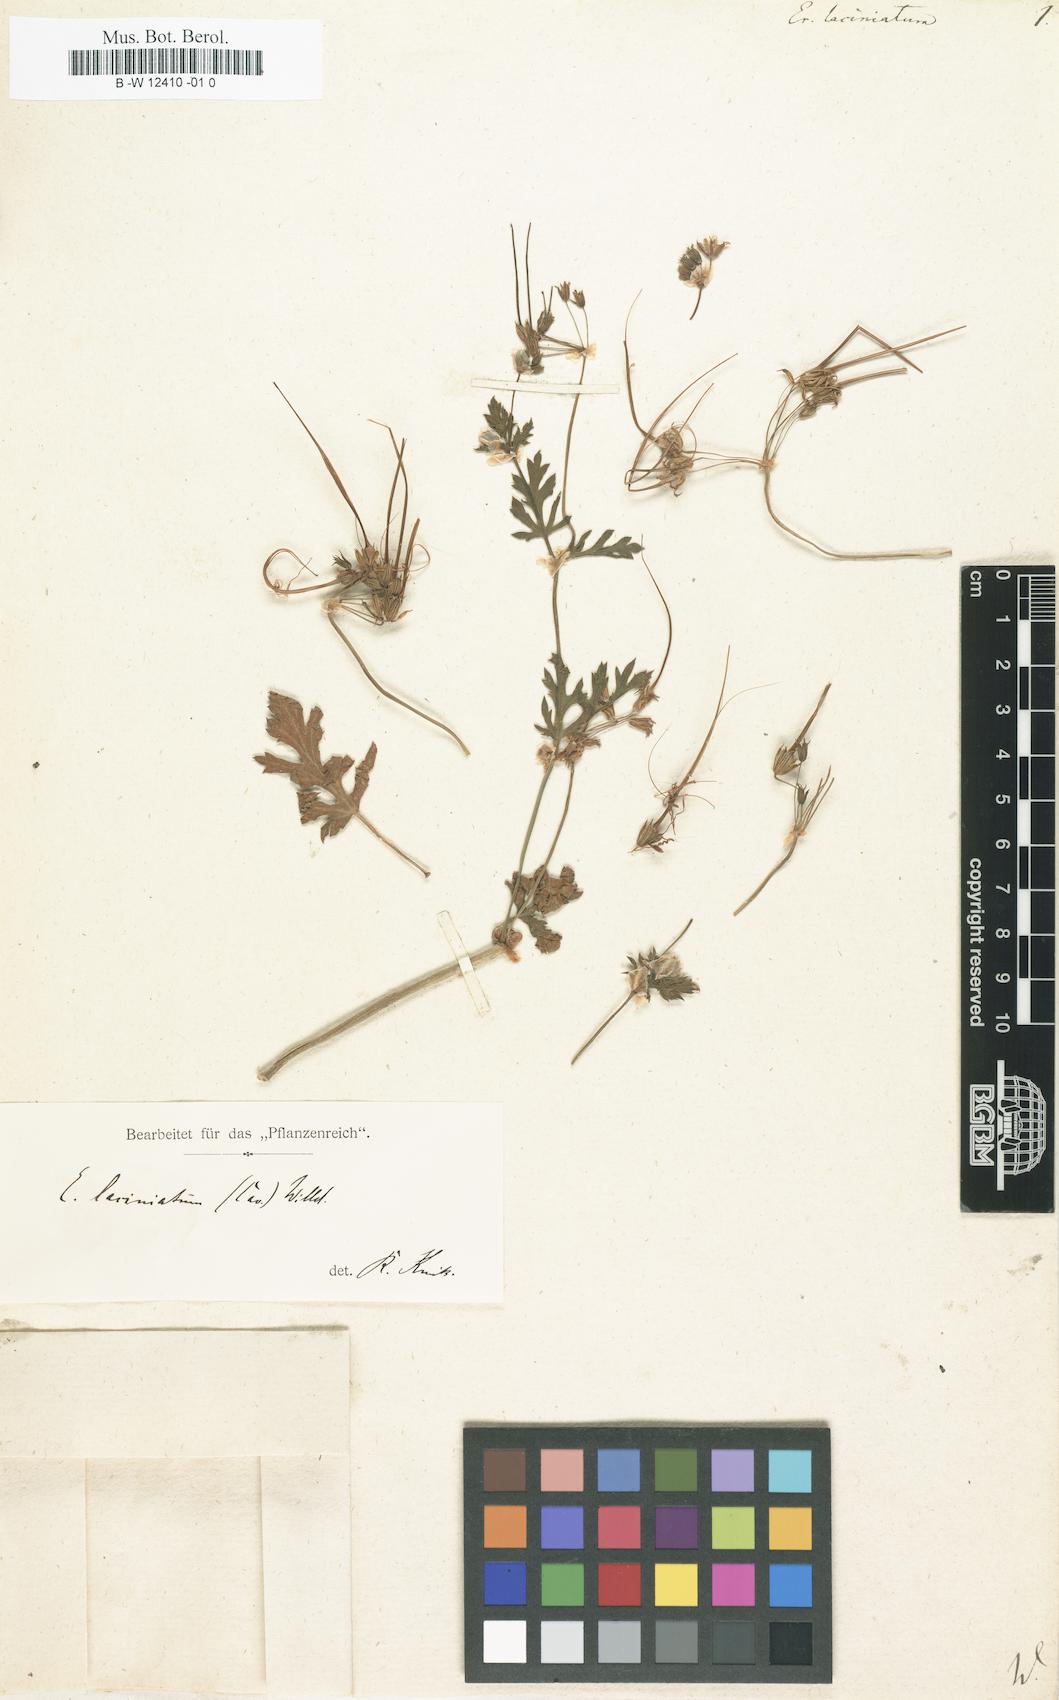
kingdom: Plantae
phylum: Tracheophyta
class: Magnoliopsida
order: Geraniales
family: Geraniaceae
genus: Erodium
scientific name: Erodium laciniatum
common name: Cutleaf stork's bill
